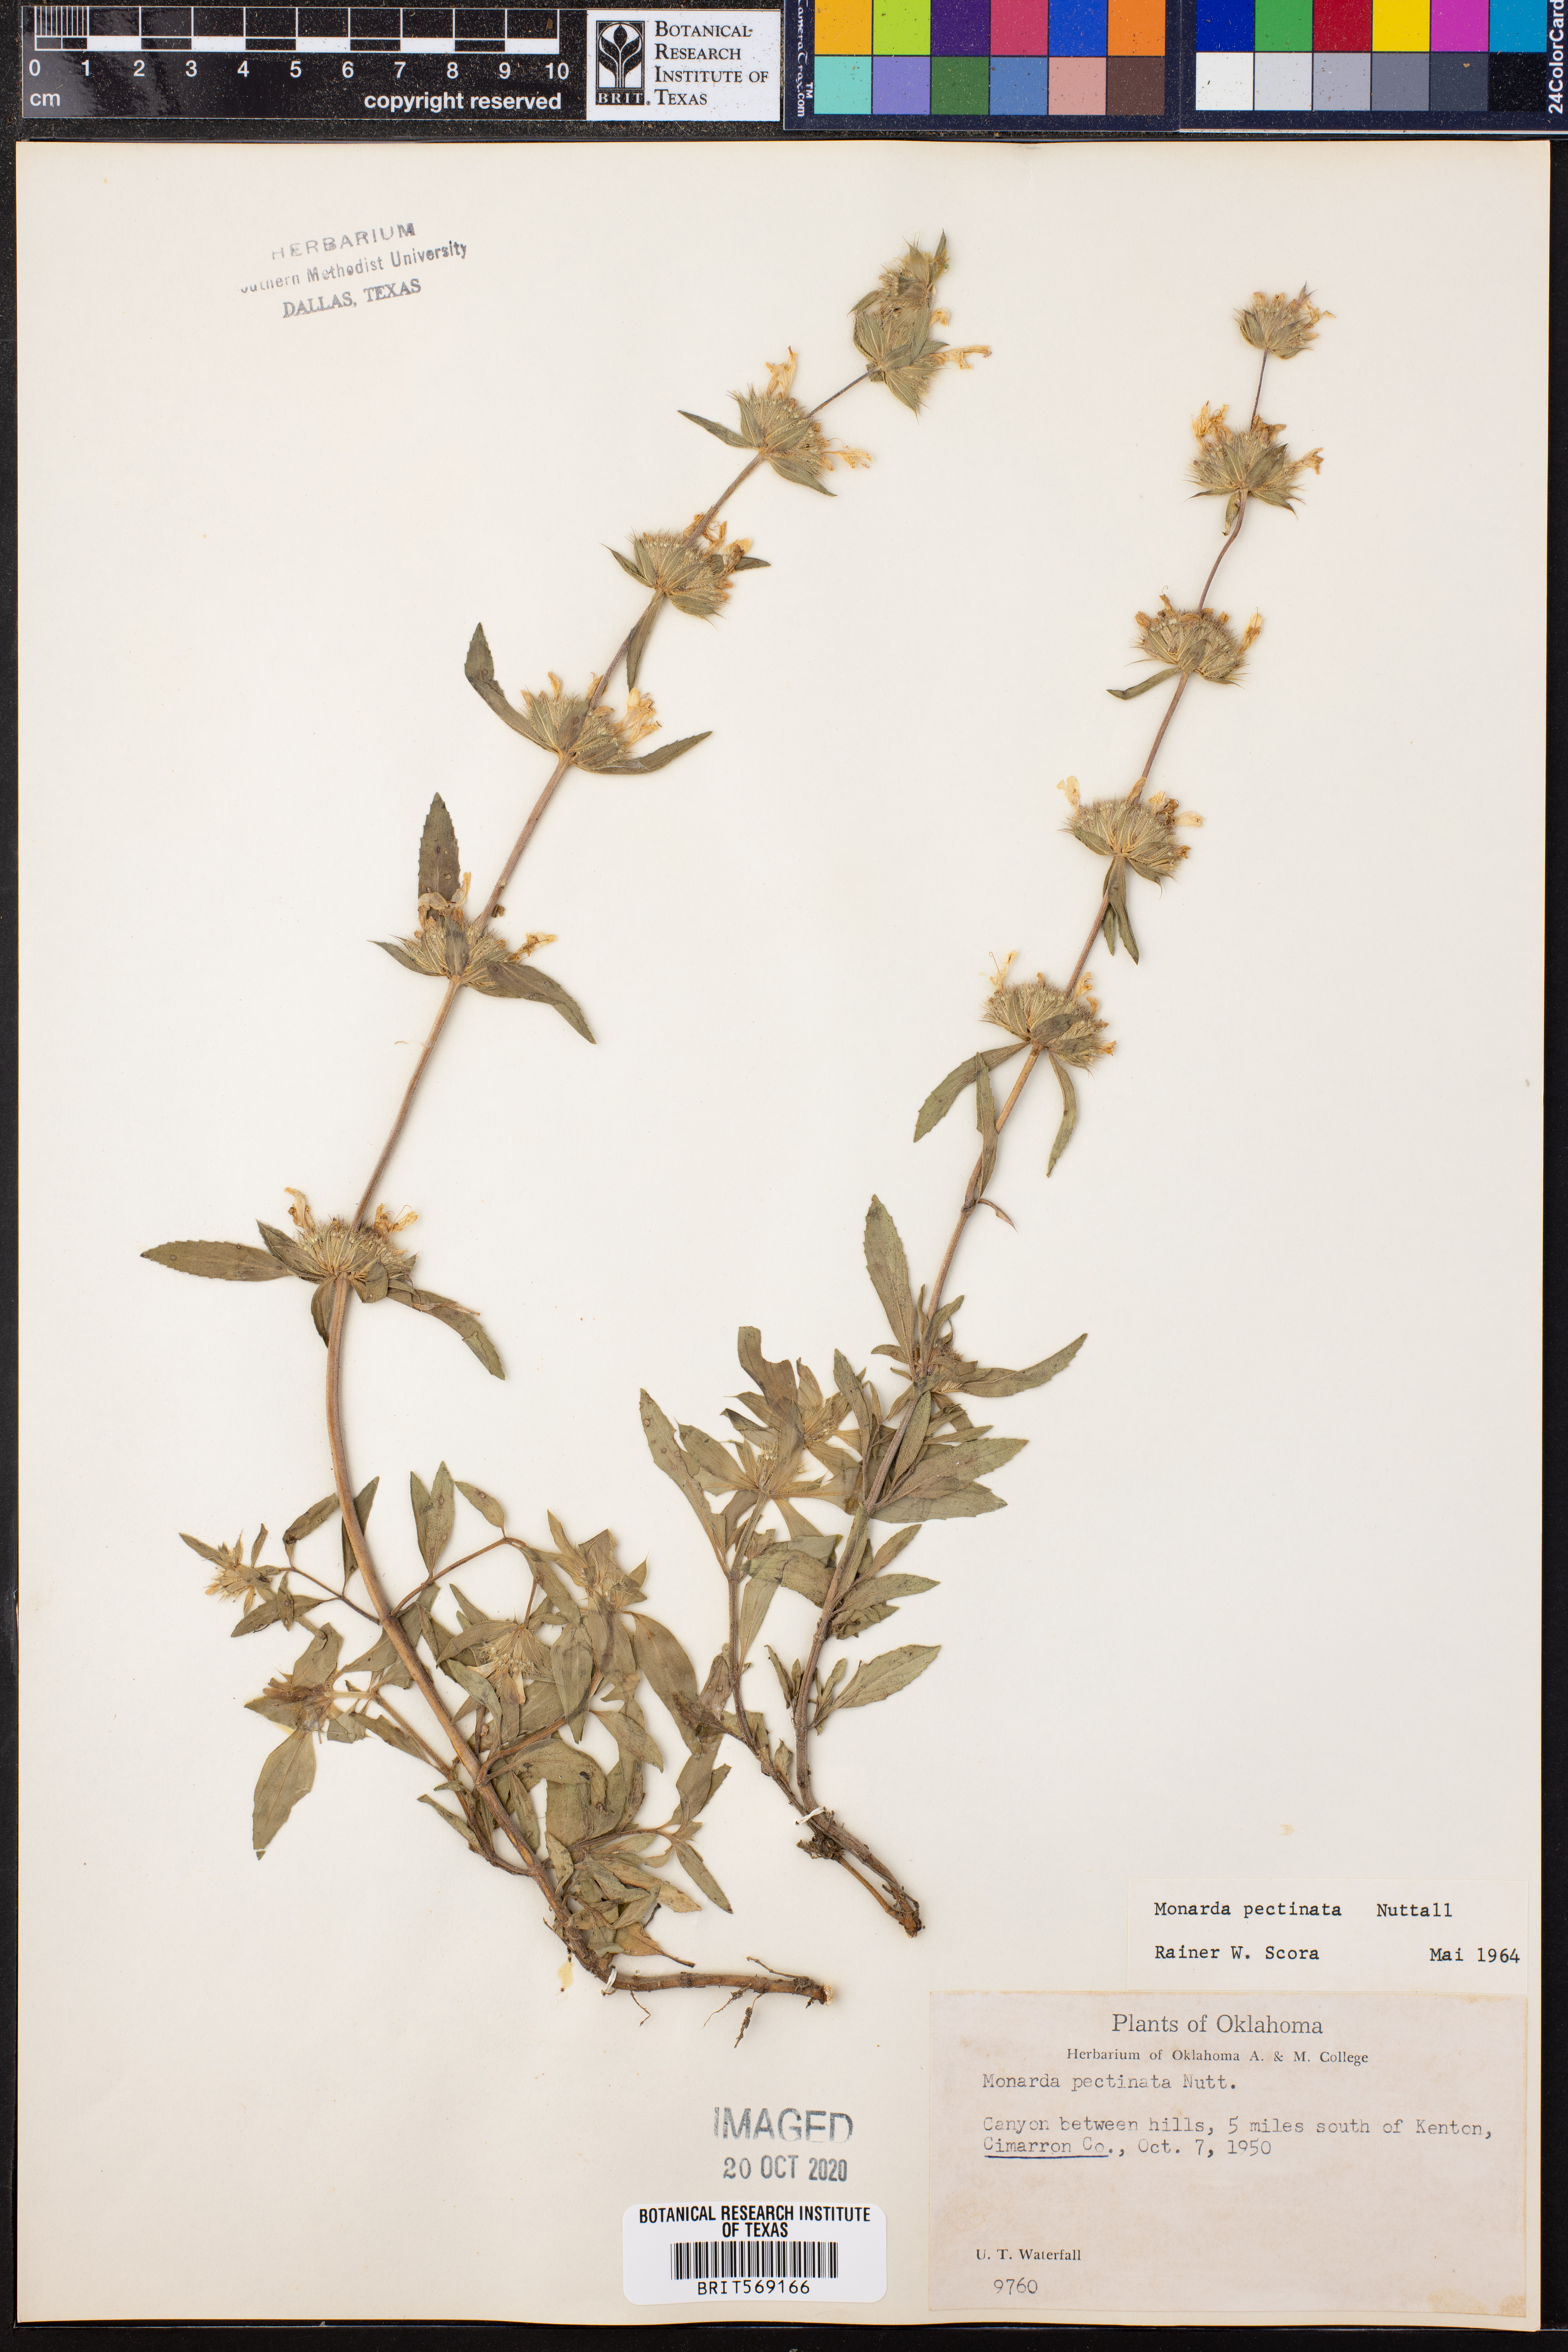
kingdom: Plantae
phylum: Tracheophyta
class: Magnoliopsida
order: Lamiales
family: Lamiaceae
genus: Monarda
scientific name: Monarda pectinata
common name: Plains beebalm
